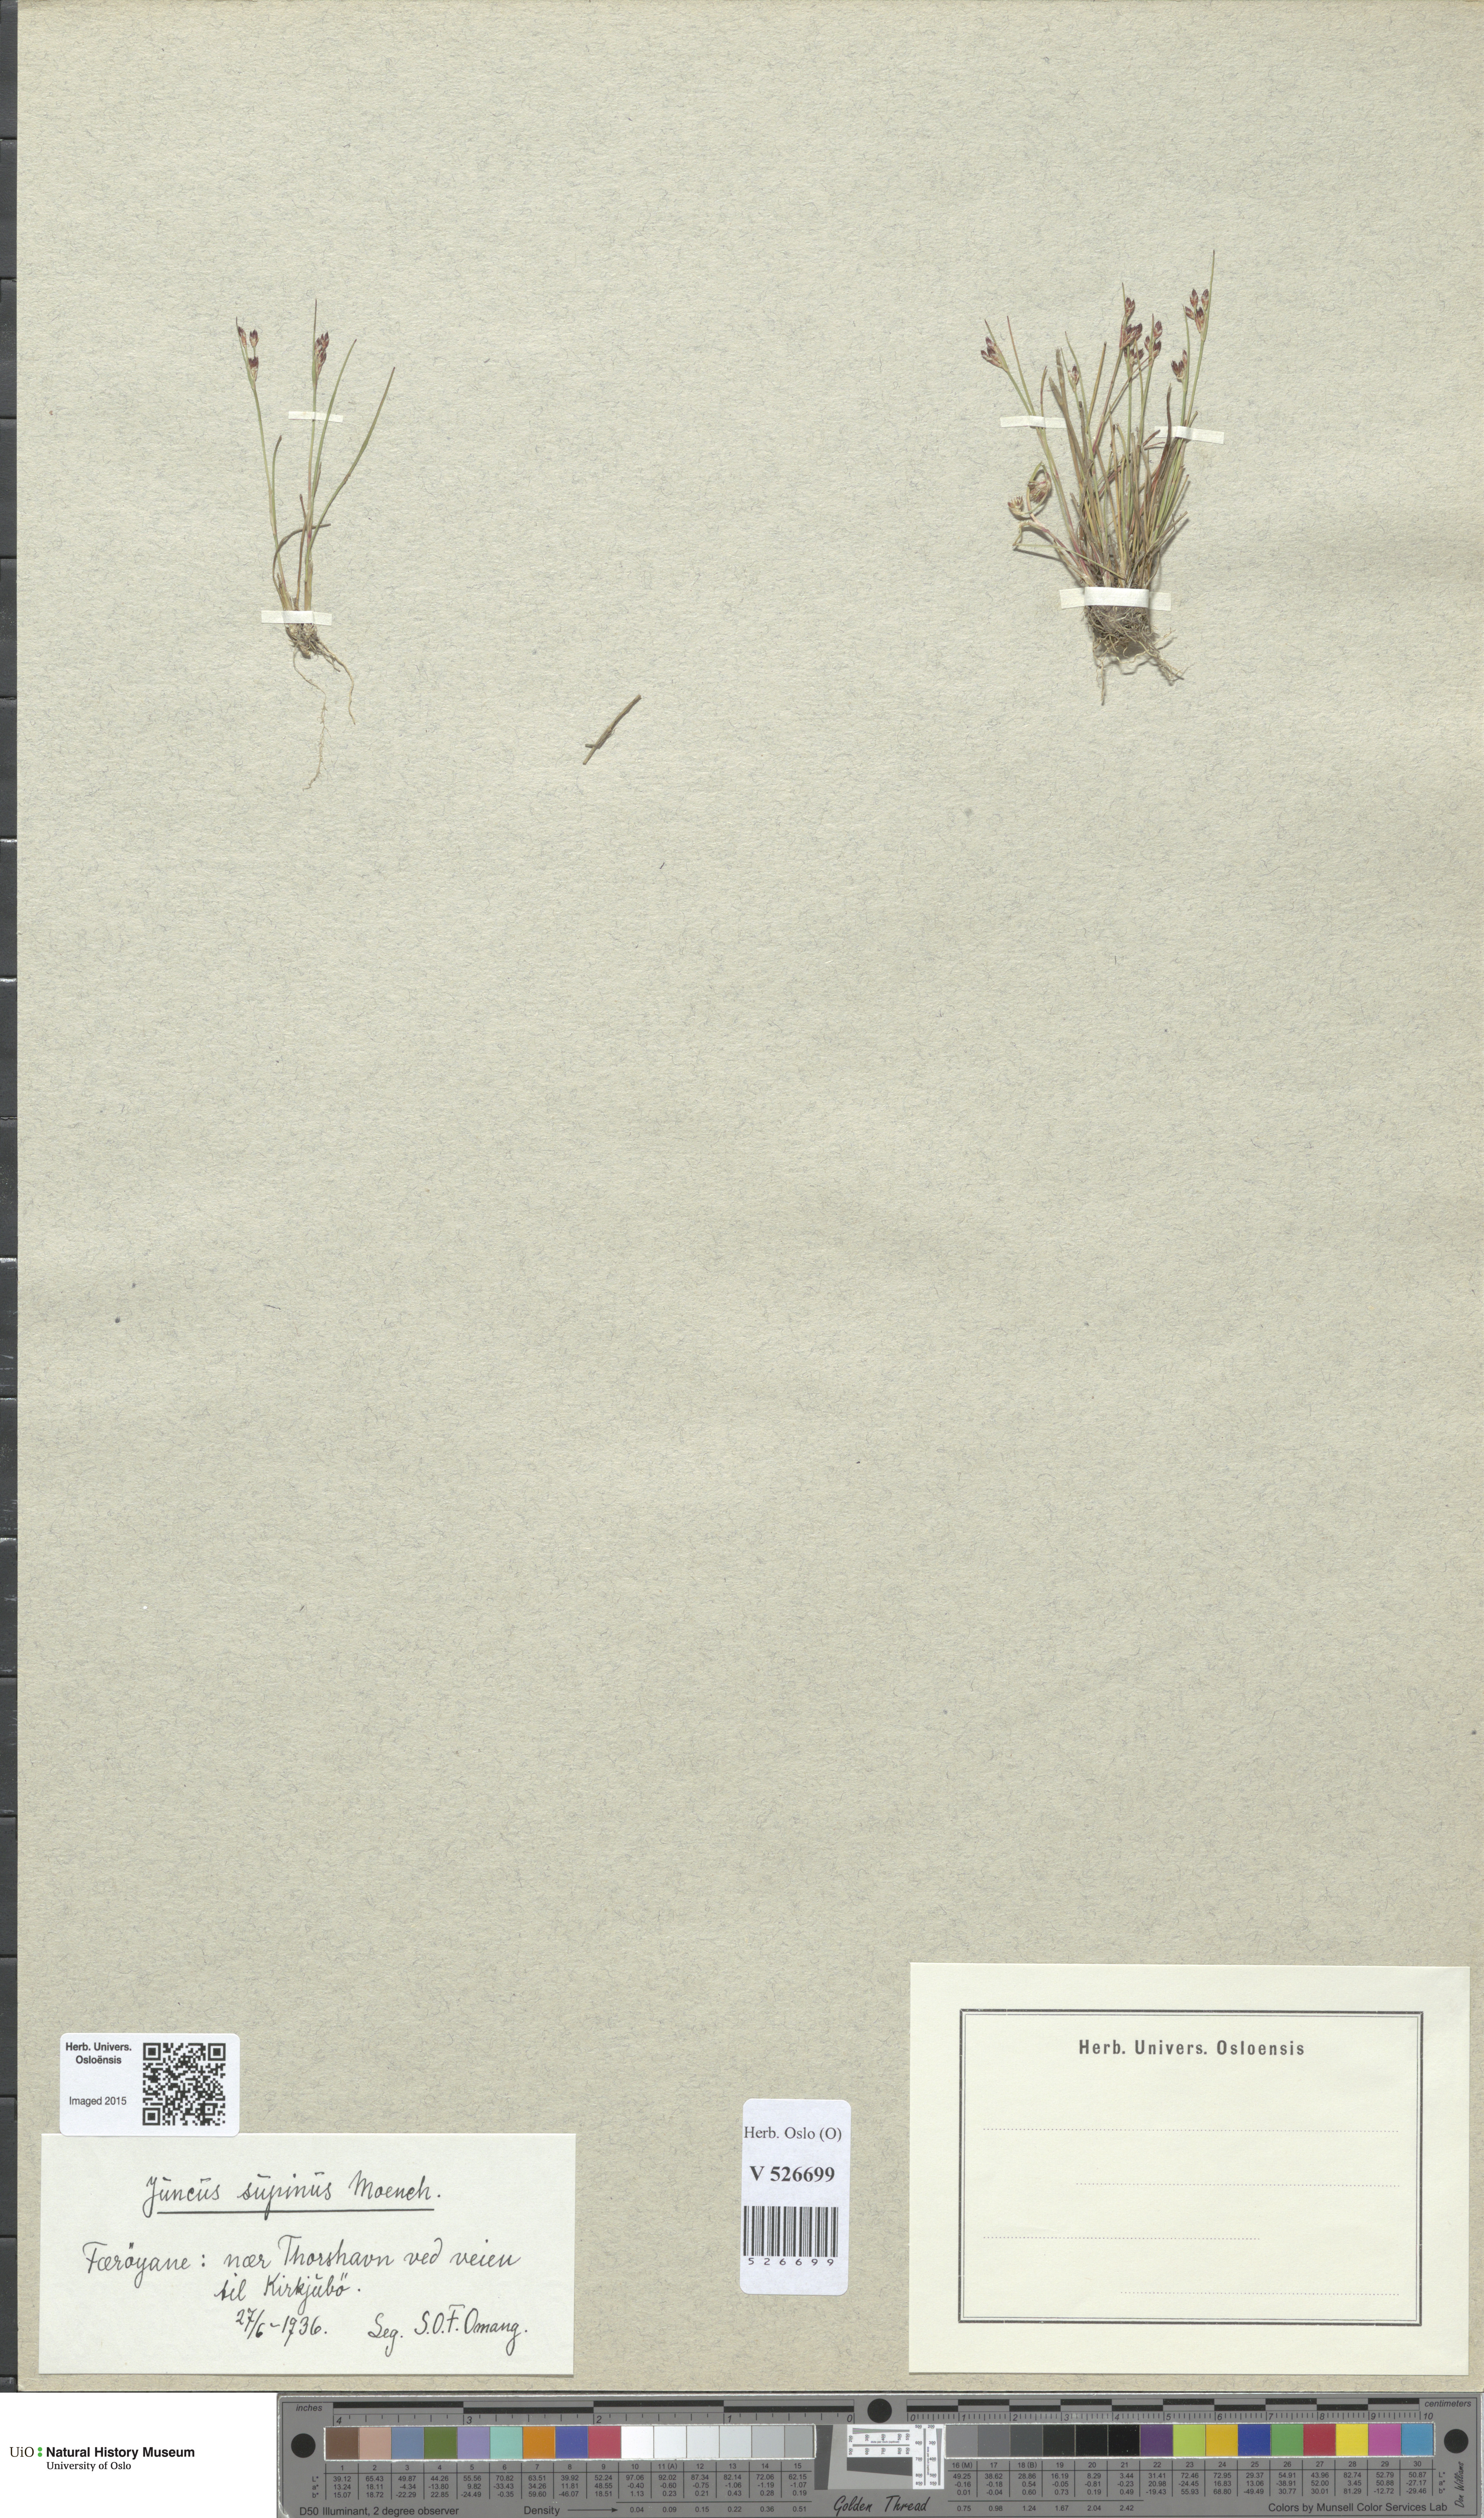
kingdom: Plantae
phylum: Tracheophyta
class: Liliopsida
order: Poales
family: Juncaceae
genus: Juncus
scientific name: Juncus bulbosus
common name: Bulbous rush
